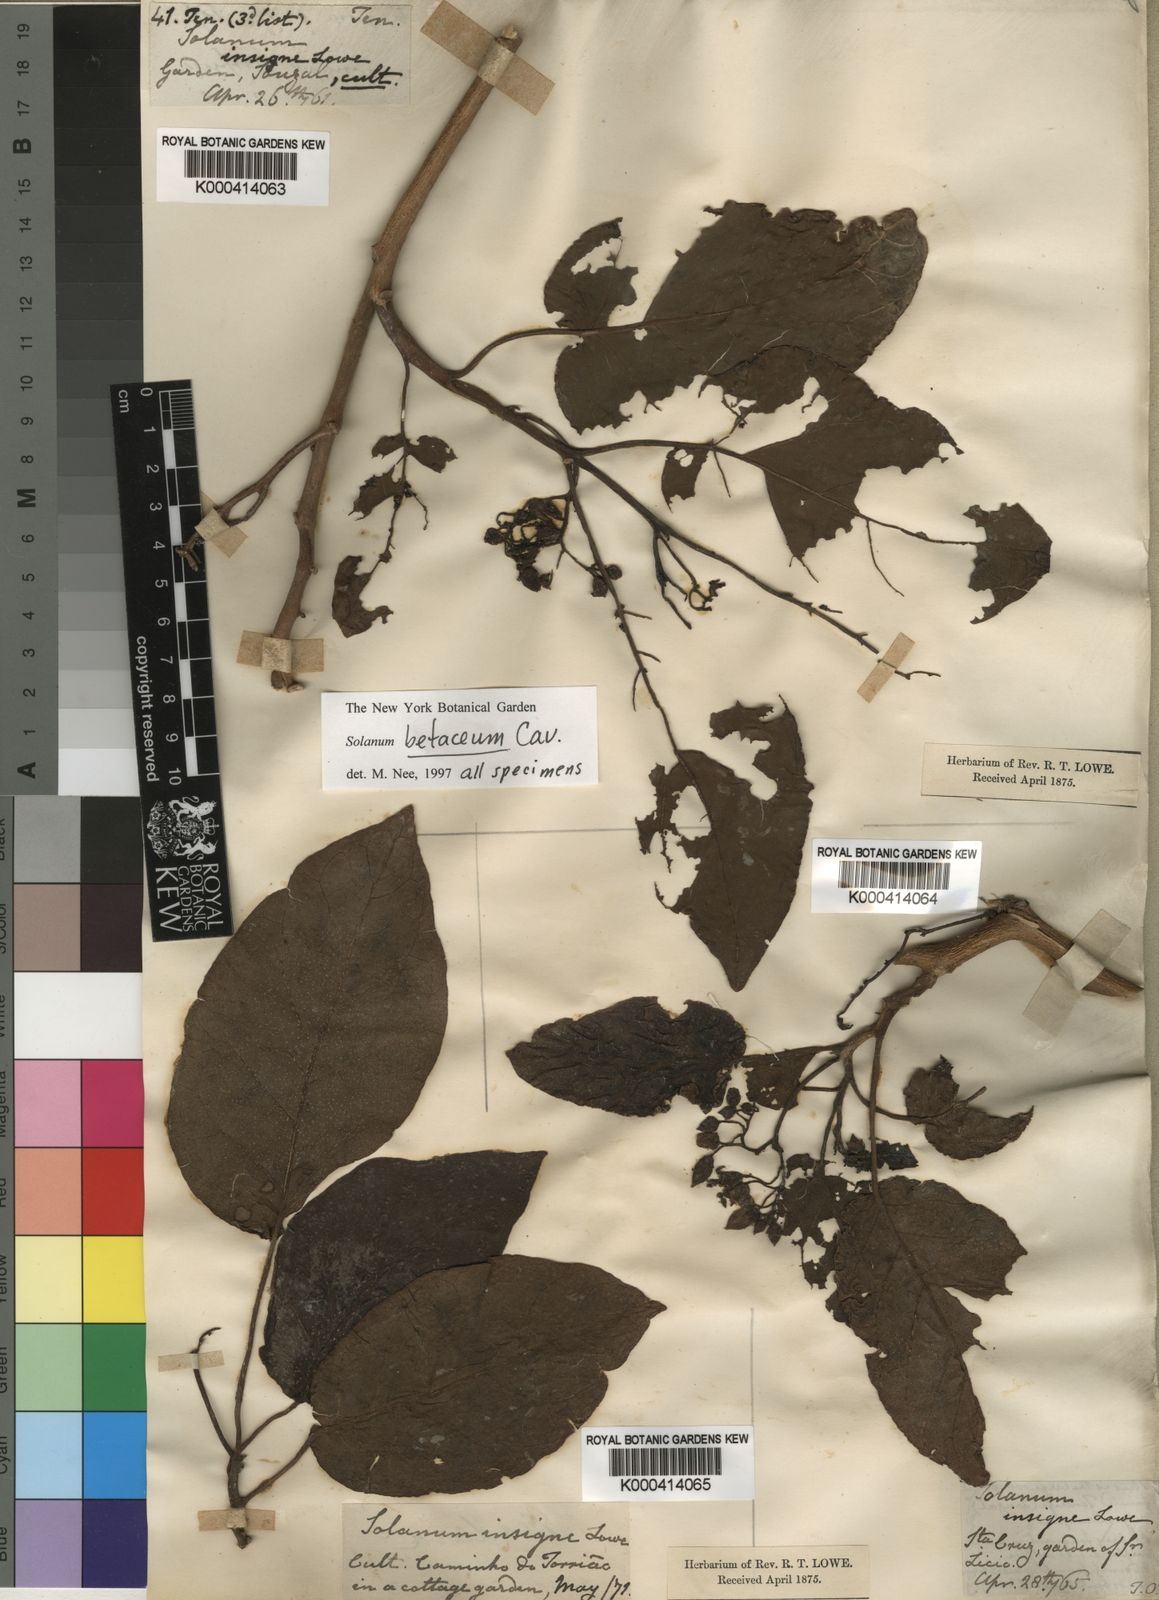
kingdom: Plantae
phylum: Tracheophyta
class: Magnoliopsida
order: Solanales
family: Solanaceae
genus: Solanum
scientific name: Solanum nigrum
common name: Black nightshade
